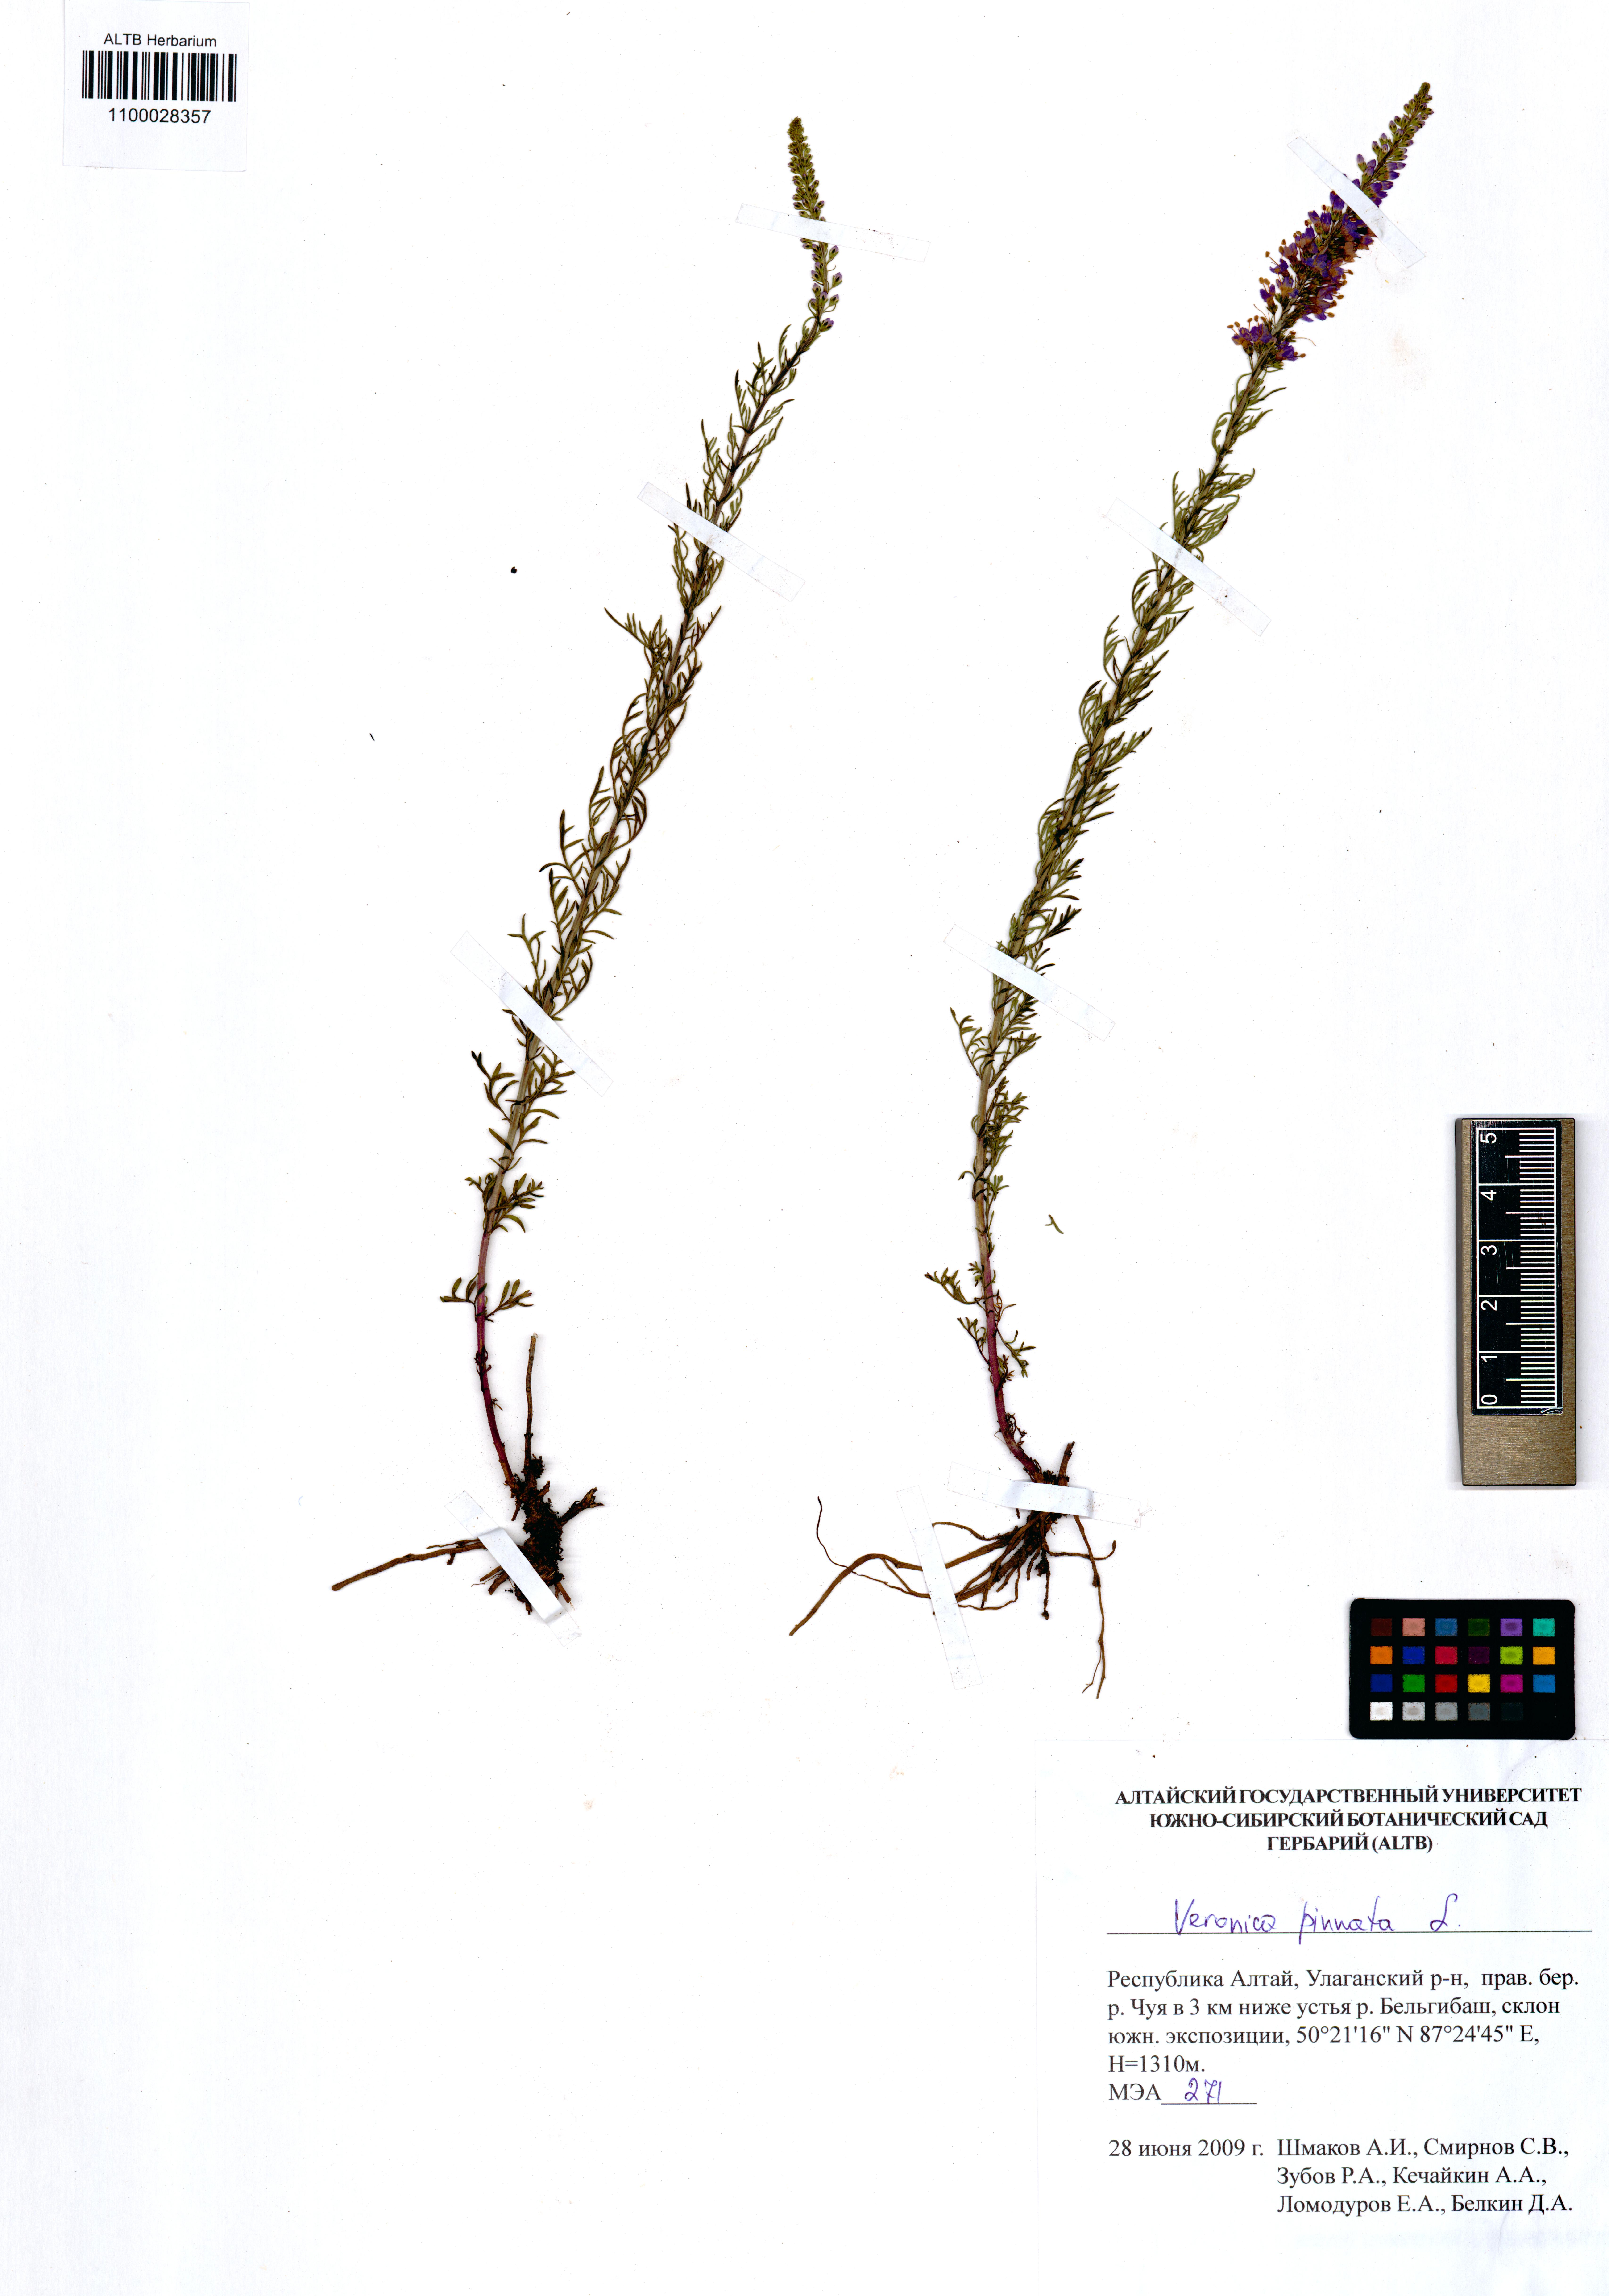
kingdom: Plantae
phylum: Tracheophyta
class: Magnoliopsida
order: Lamiales
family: Plantaginaceae
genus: Veronica
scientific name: Veronica pinnata
